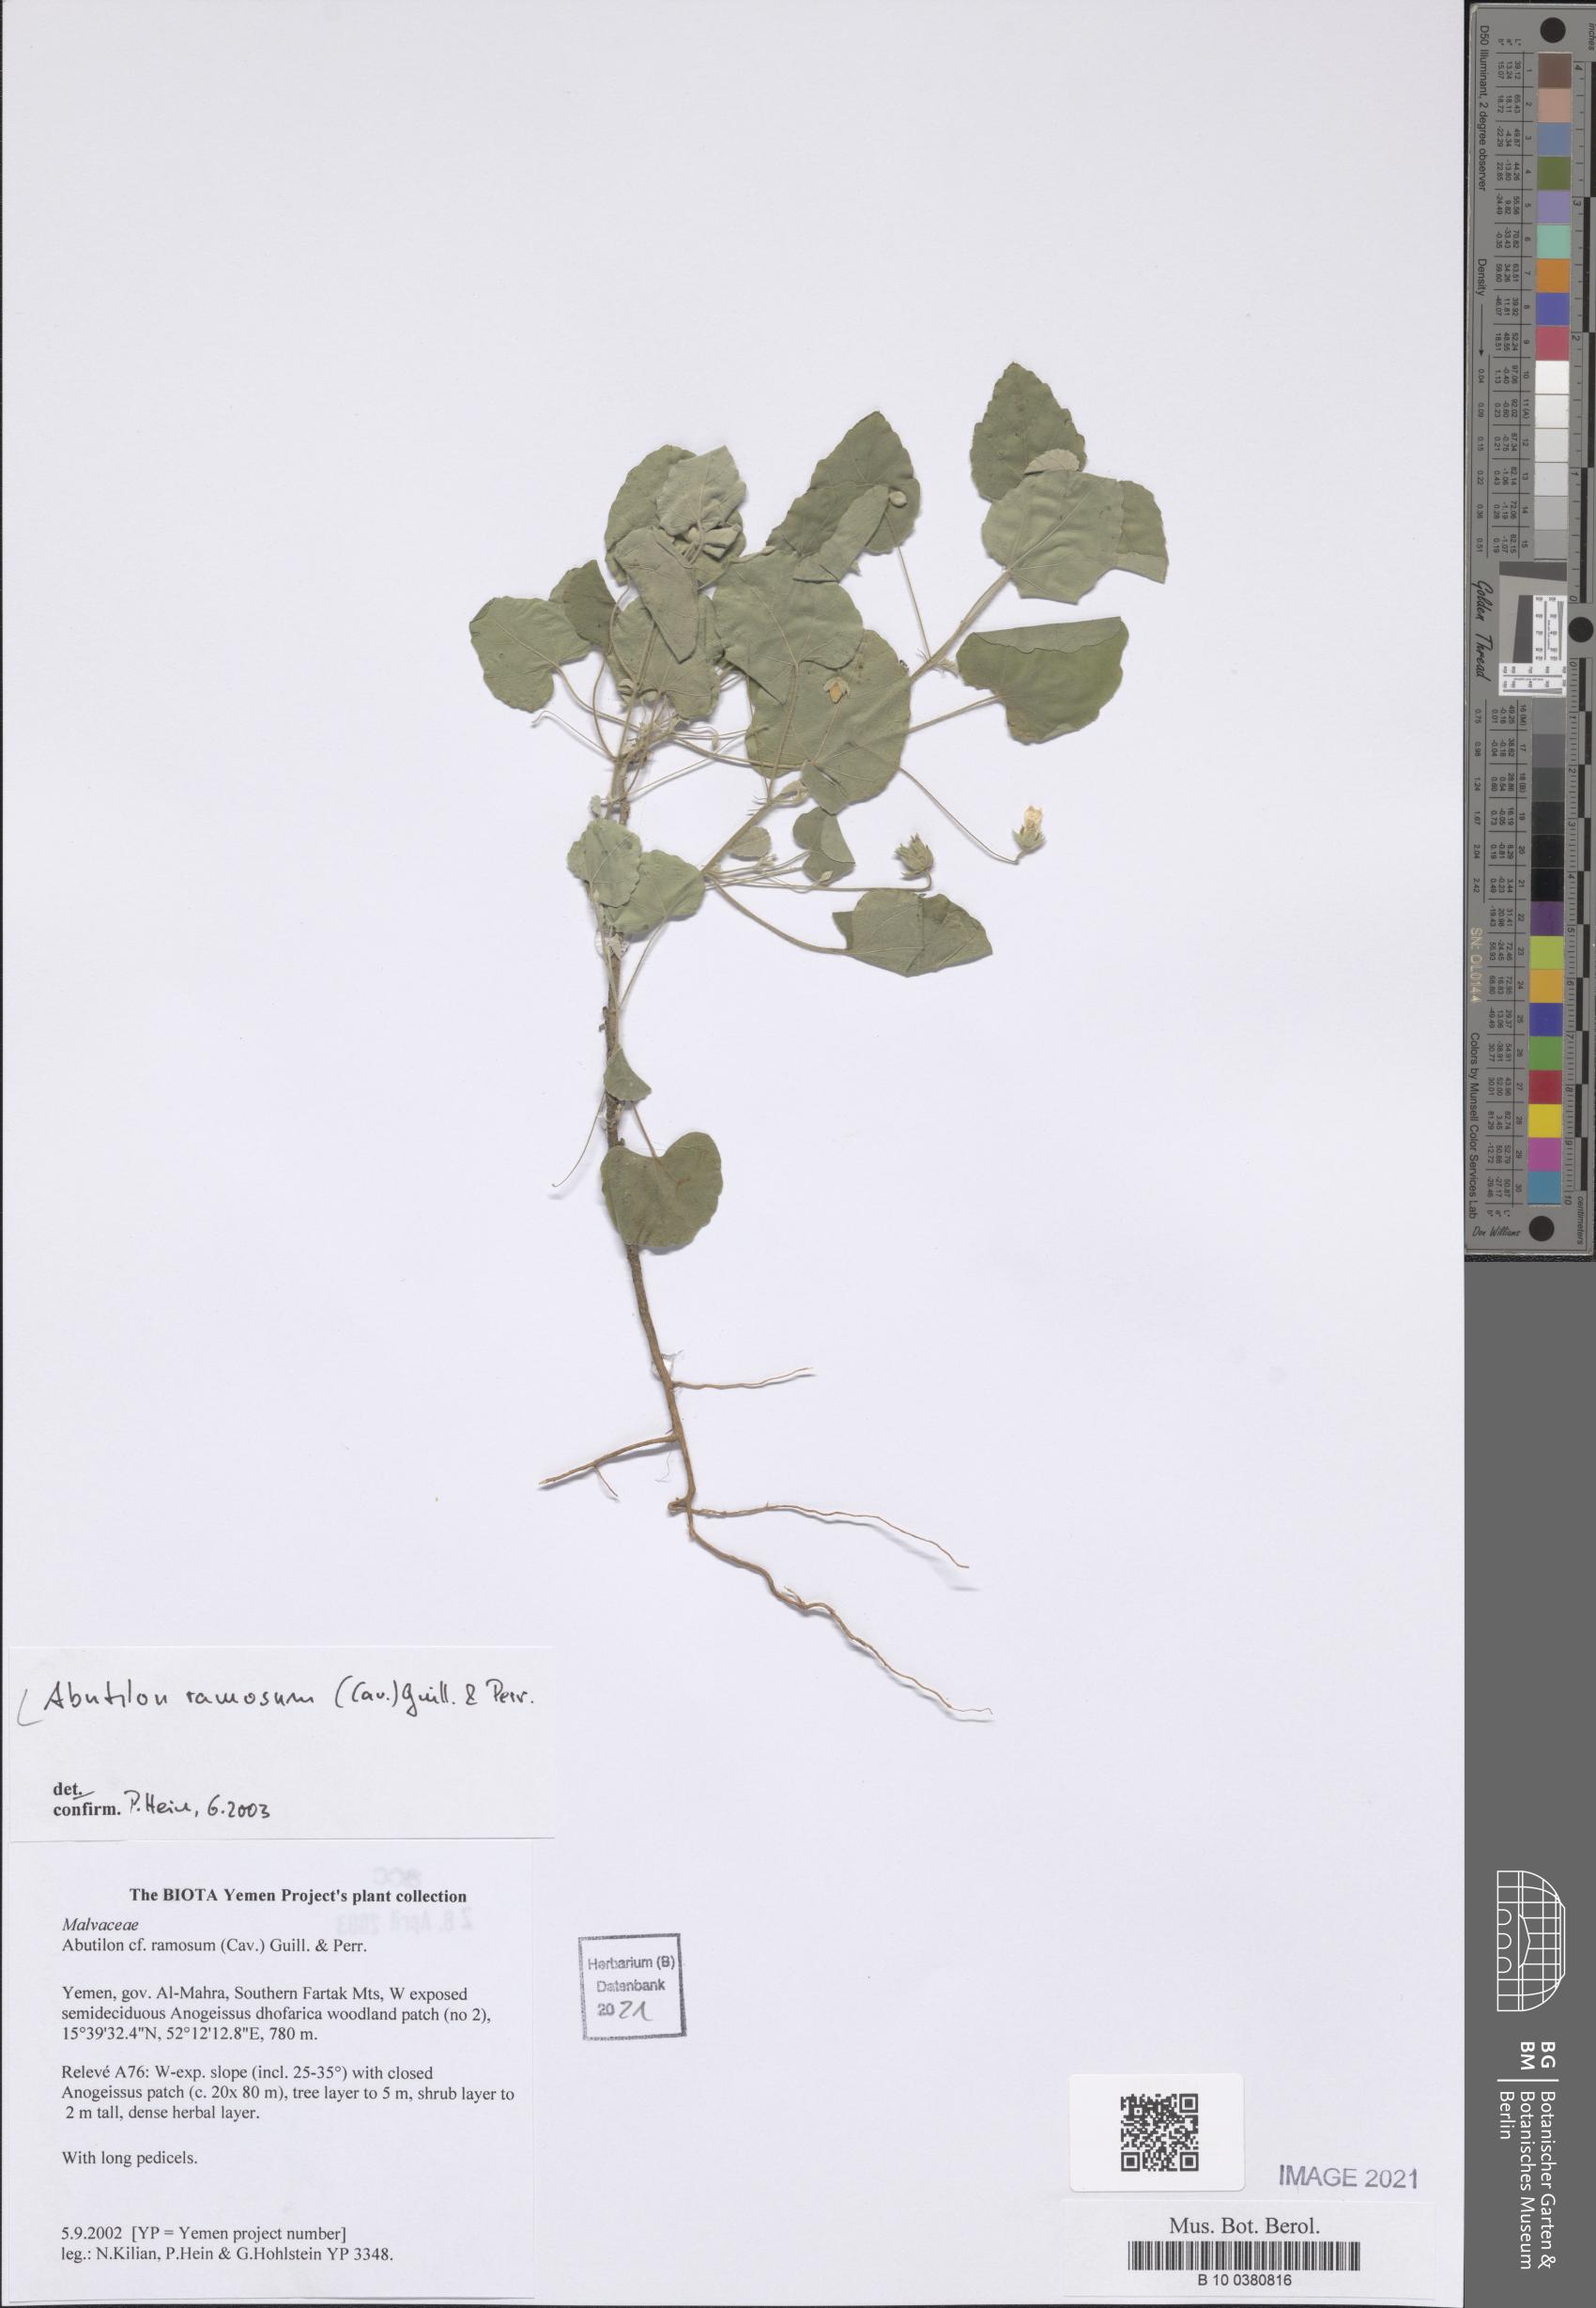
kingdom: Plantae
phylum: Tracheophyta
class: Magnoliopsida
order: Malvales
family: Malvaceae
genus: Abutilon
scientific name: Abutilon ramosum
